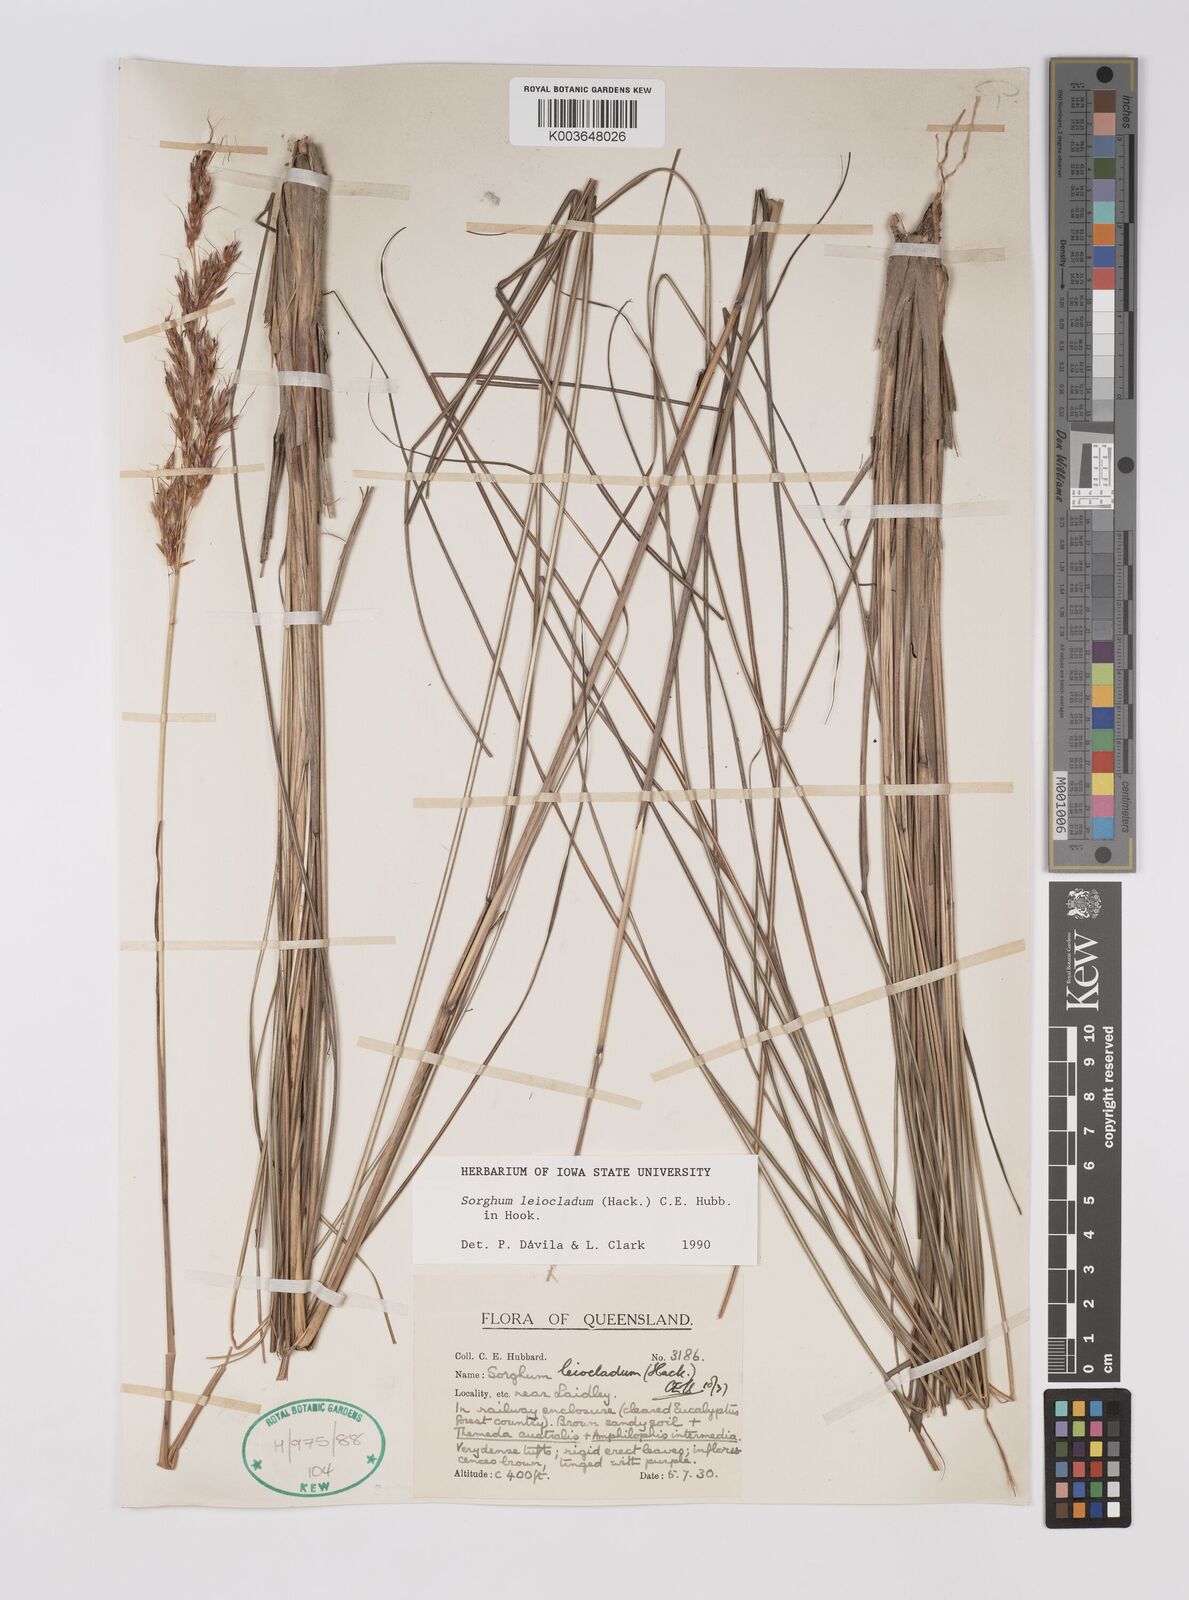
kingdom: Plantae
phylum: Tracheophyta
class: Liliopsida
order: Poales
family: Poaceae
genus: Sarga
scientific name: Sarga leioclada
